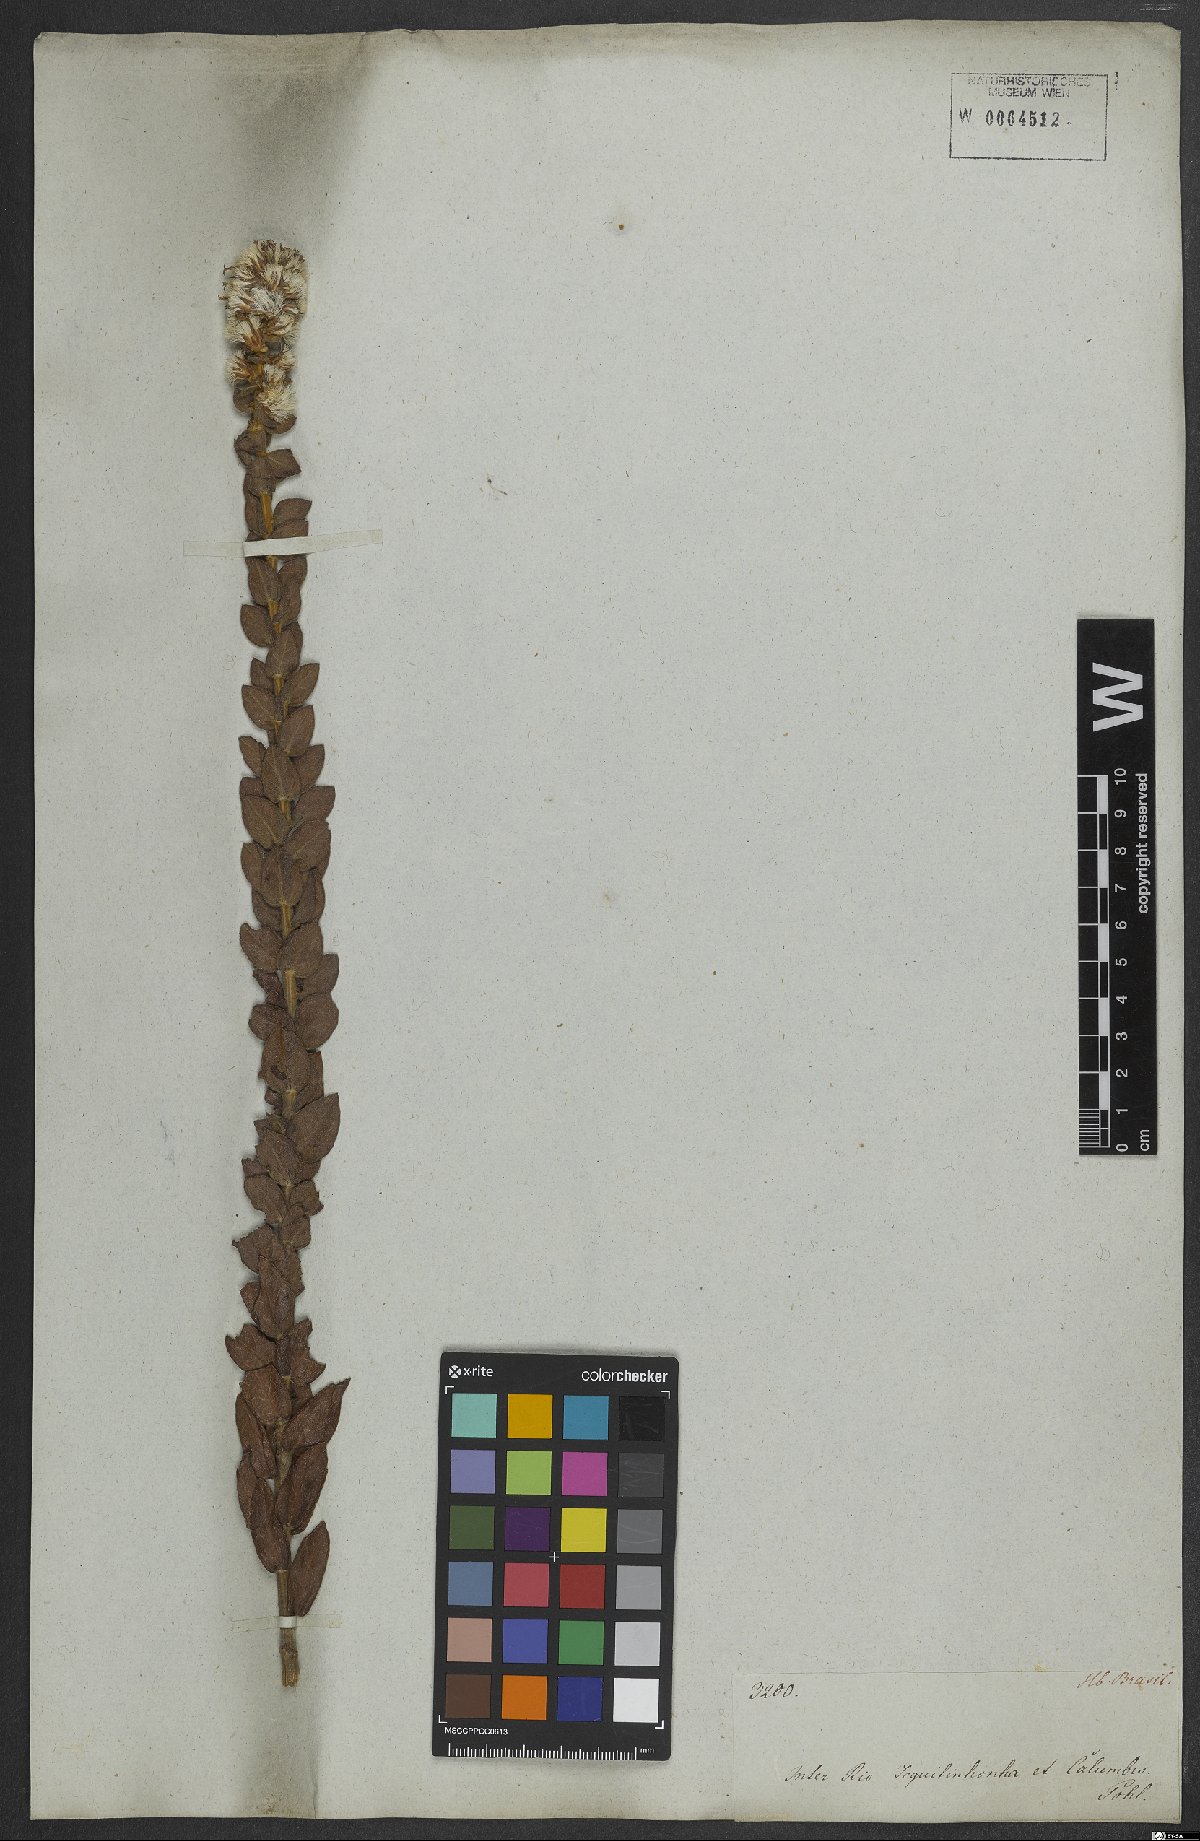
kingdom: Plantae
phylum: Tracheophyta
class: Magnoliopsida
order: Asterales
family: Asteraceae
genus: Lepidaploa
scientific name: Lepidaploa barbata
